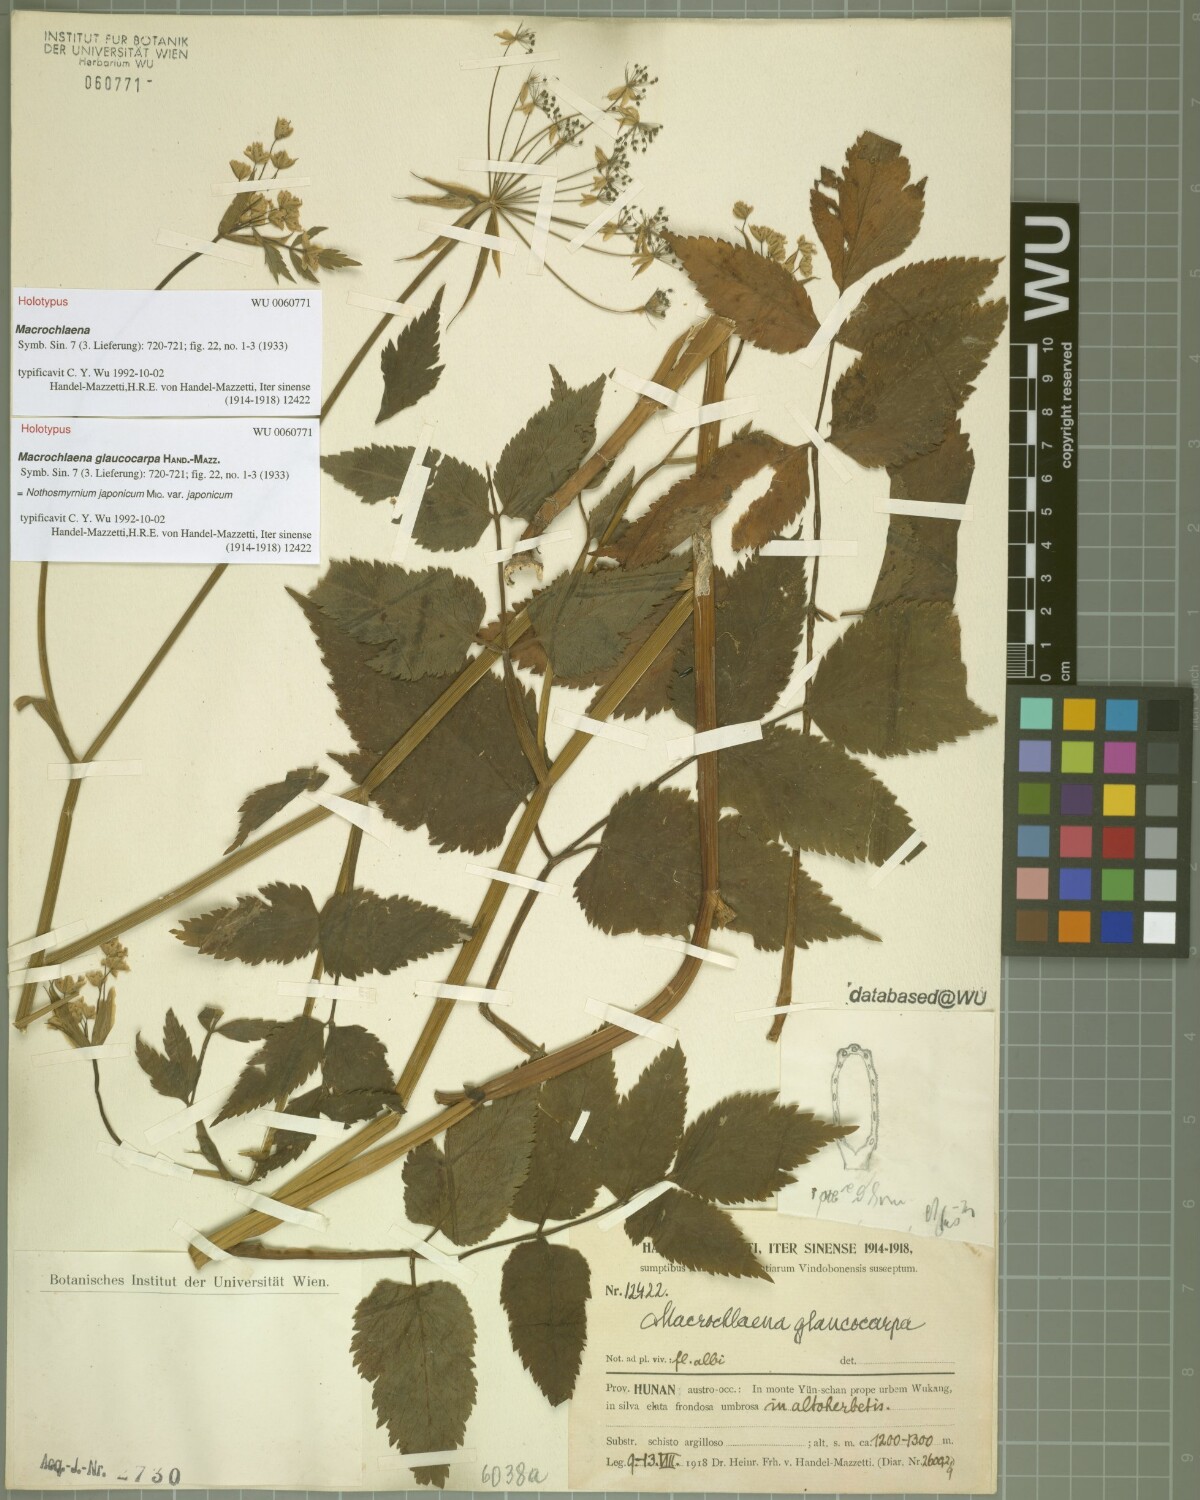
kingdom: Plantae
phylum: Tracheophyta
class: Magnoliopsida
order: Apiales
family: Apiaceae
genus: Nothosmyrnium
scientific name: Nothosmyrnium japonicum
